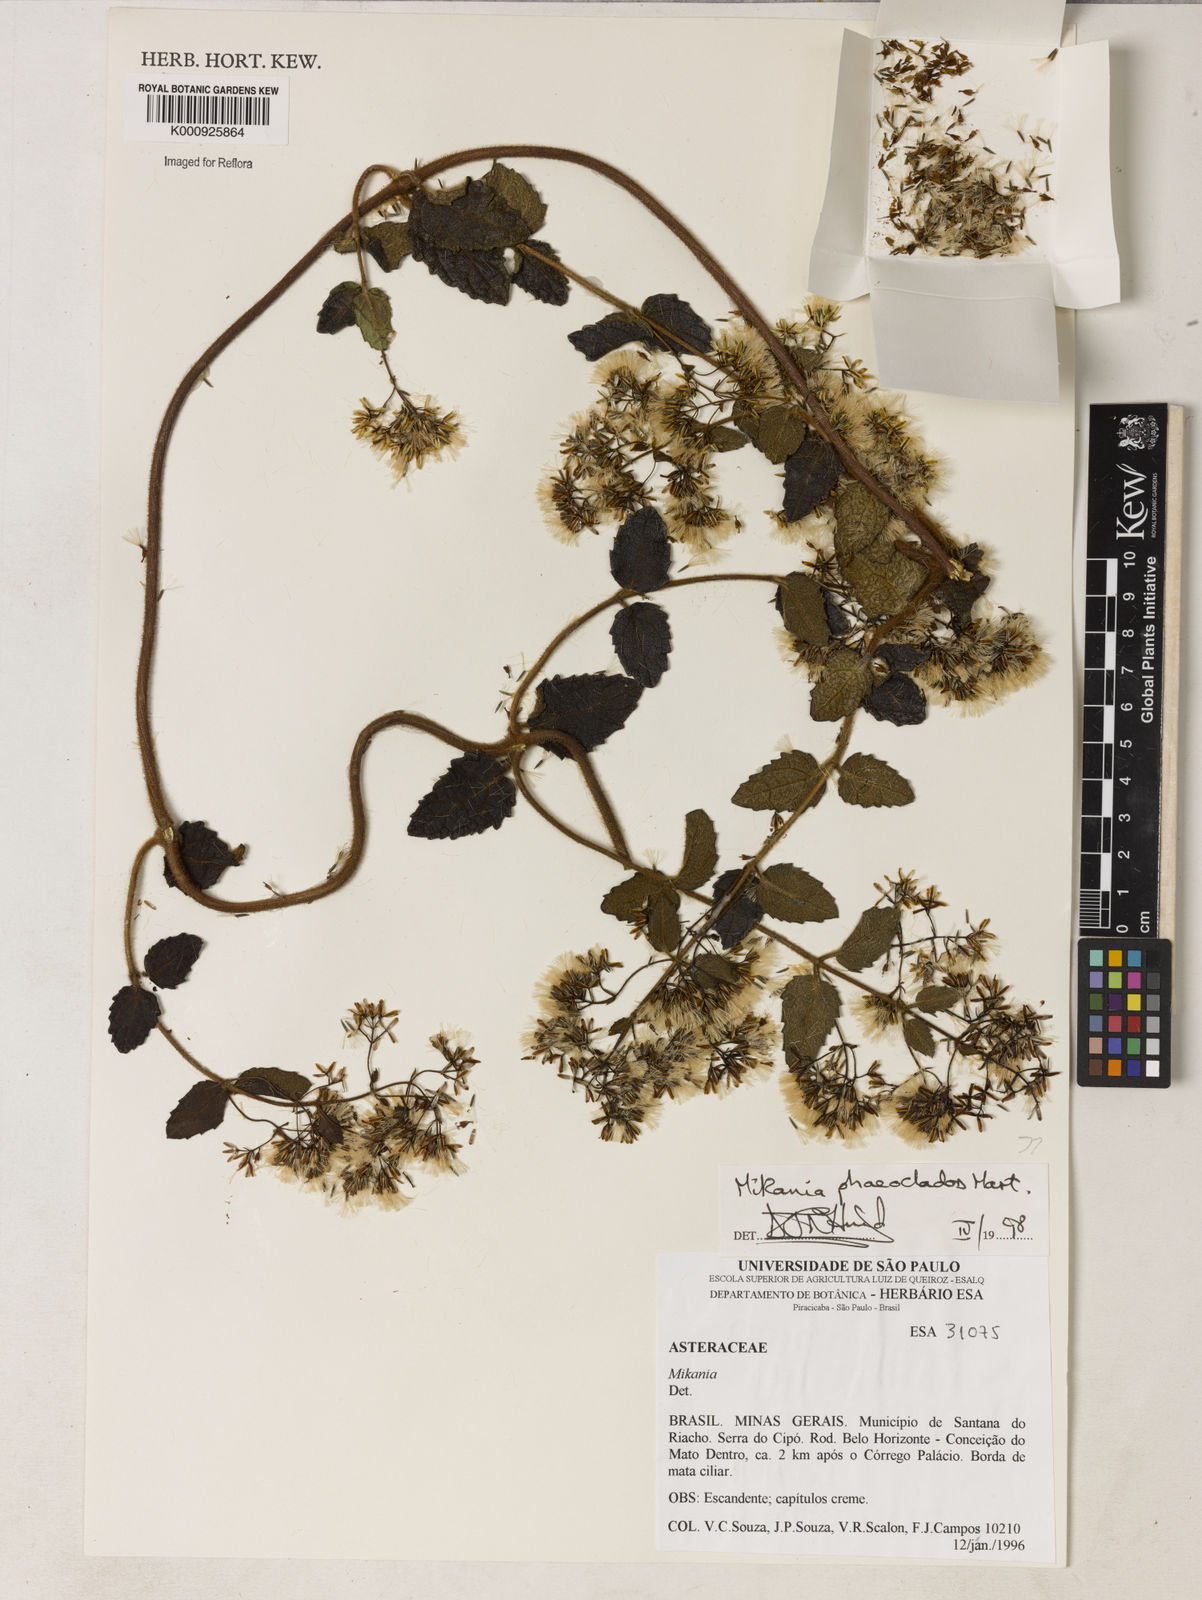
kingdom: Plantae
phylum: Tracheophyta
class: Magnoliopsida
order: Asterales
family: Asteraceae
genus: Mikania
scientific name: Mikania
